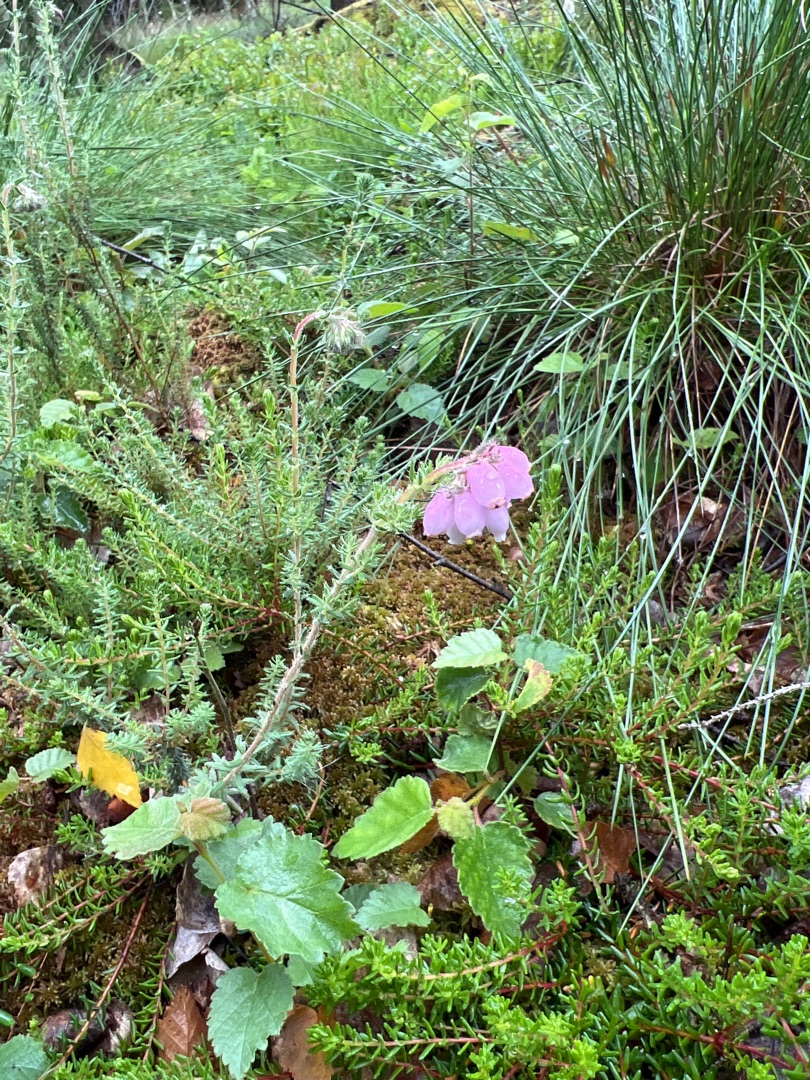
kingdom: Plantae
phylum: Tracheophyta
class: Magnoliopsida
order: Ericales
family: Ericaceae
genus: Erica
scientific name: Erica tetralix
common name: Klokkelyng
